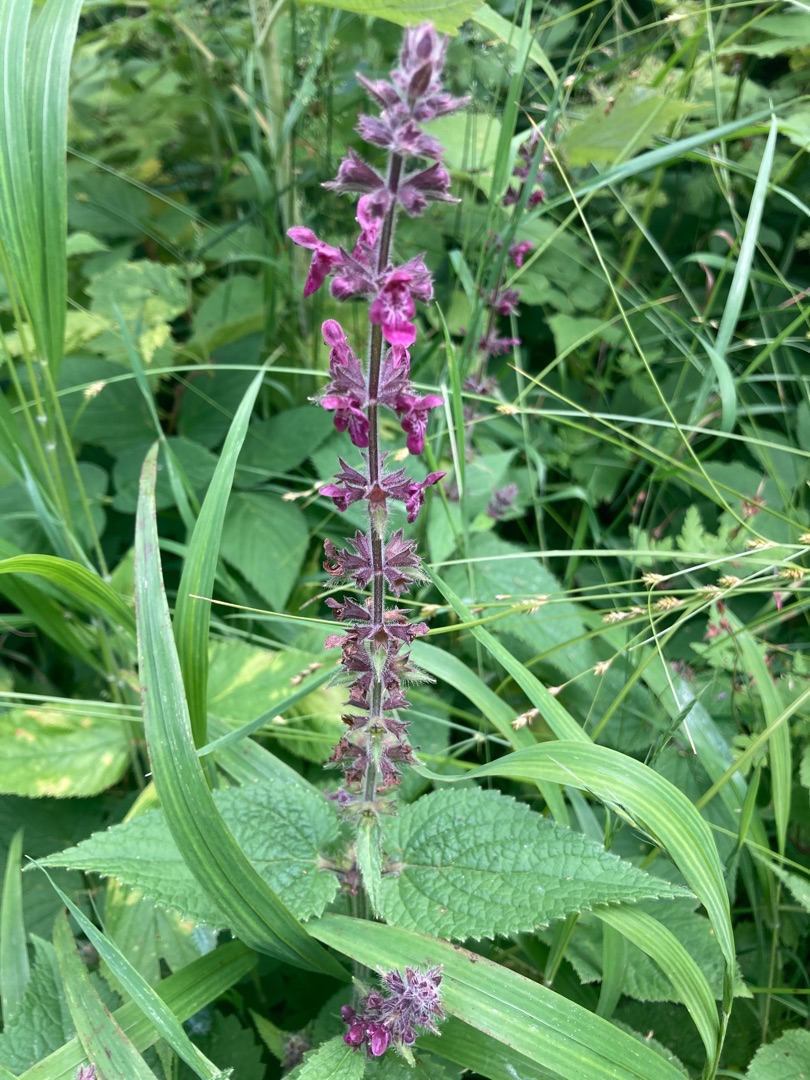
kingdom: Plantae
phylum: Tracheophyta
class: Magnoliopsida
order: Lamiales
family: Lamiaceae
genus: Stachys
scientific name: Stachys sylvatica
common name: Skov-galtetand
